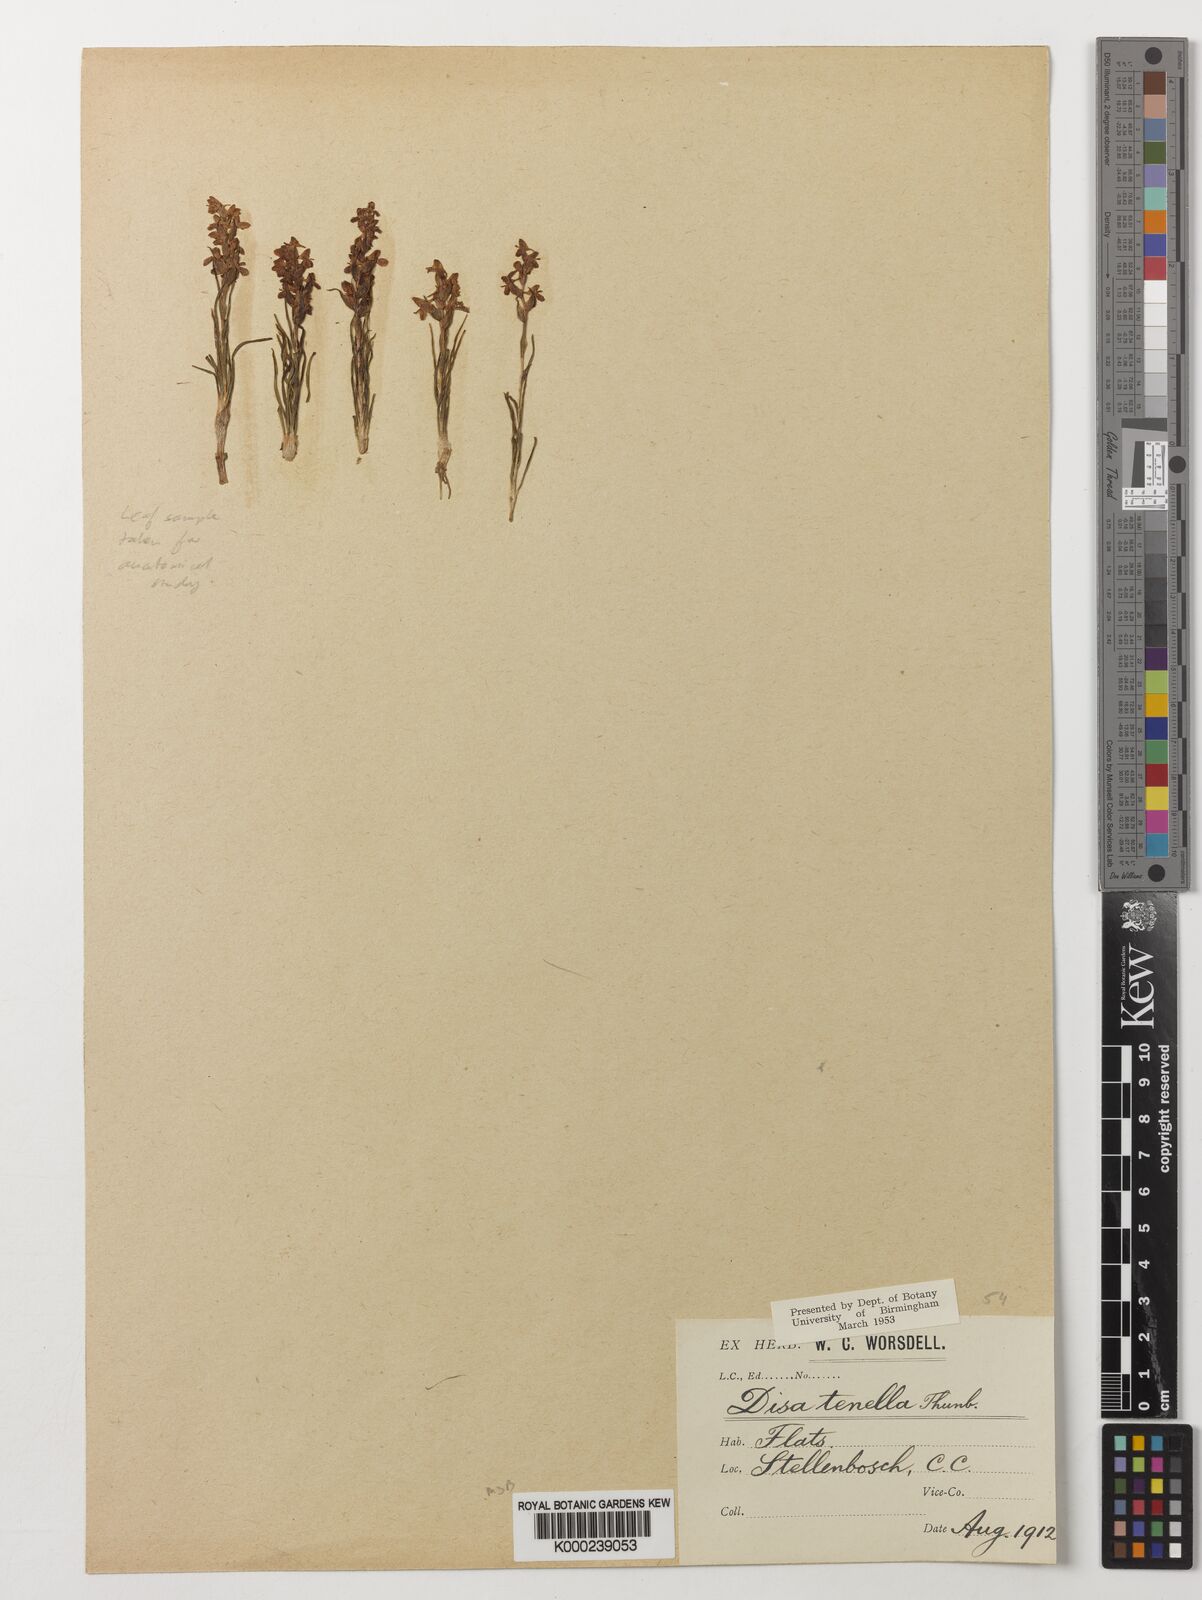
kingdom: Plantae
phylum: Tracheophyta
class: Liliopsida
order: Asparagales
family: Orchidaceae
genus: Disa
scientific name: Disa tenella
